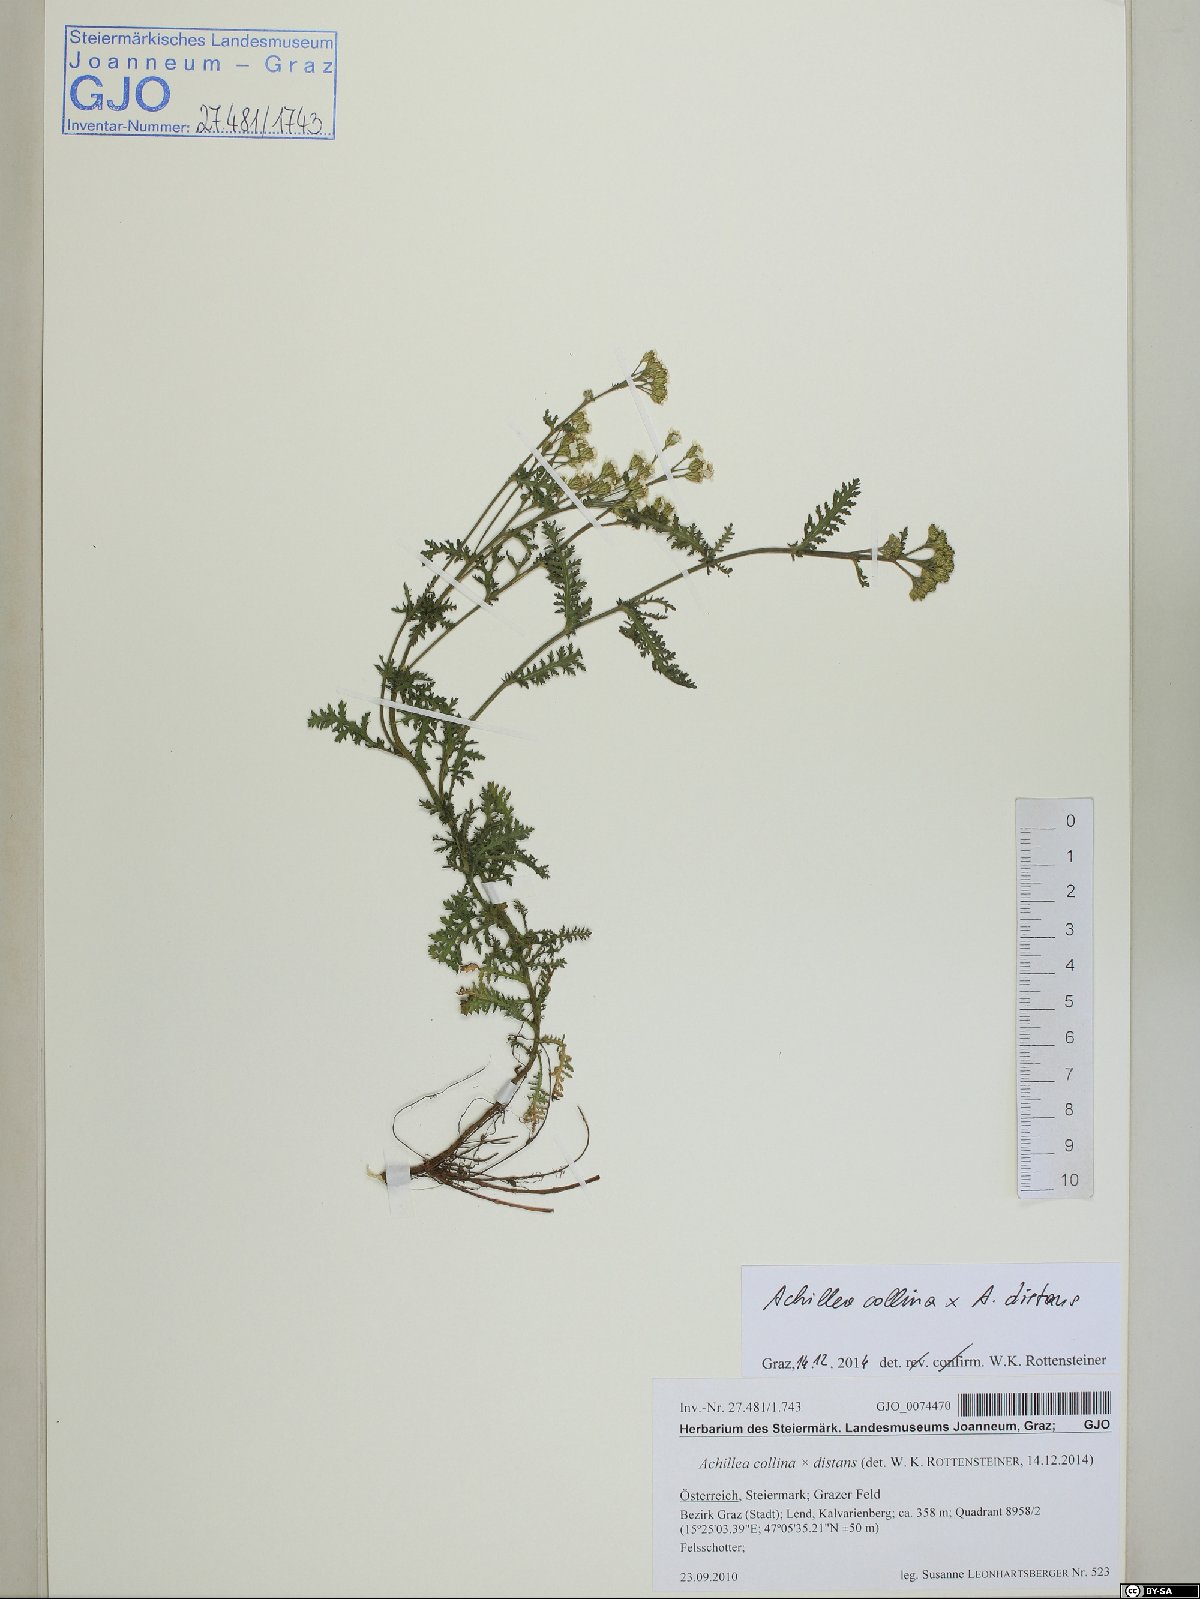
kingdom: Plantae
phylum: Tracheophyta
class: Magnoliopsida
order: Asterales
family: Asteraceae
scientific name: Asteraceae
